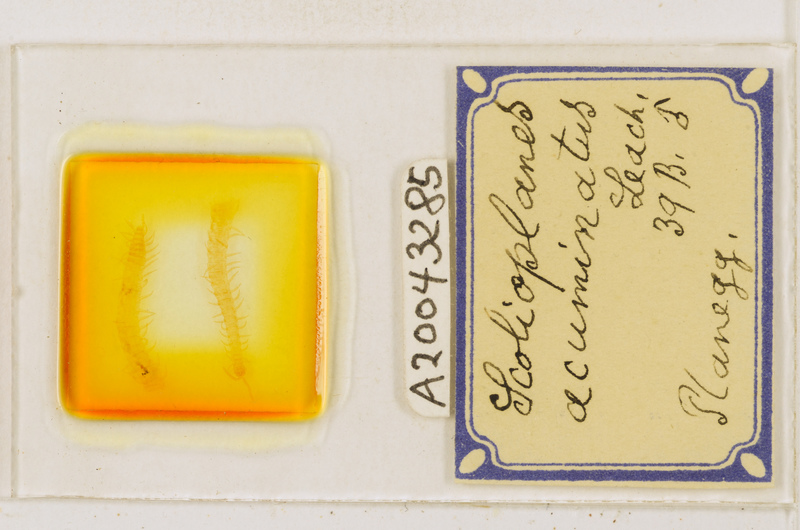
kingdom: Animalia
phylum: Arthropoda
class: Chilopoda
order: Geophilomorpha
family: Linotaeniidae
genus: Strigamia
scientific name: Strigamia acuminata
